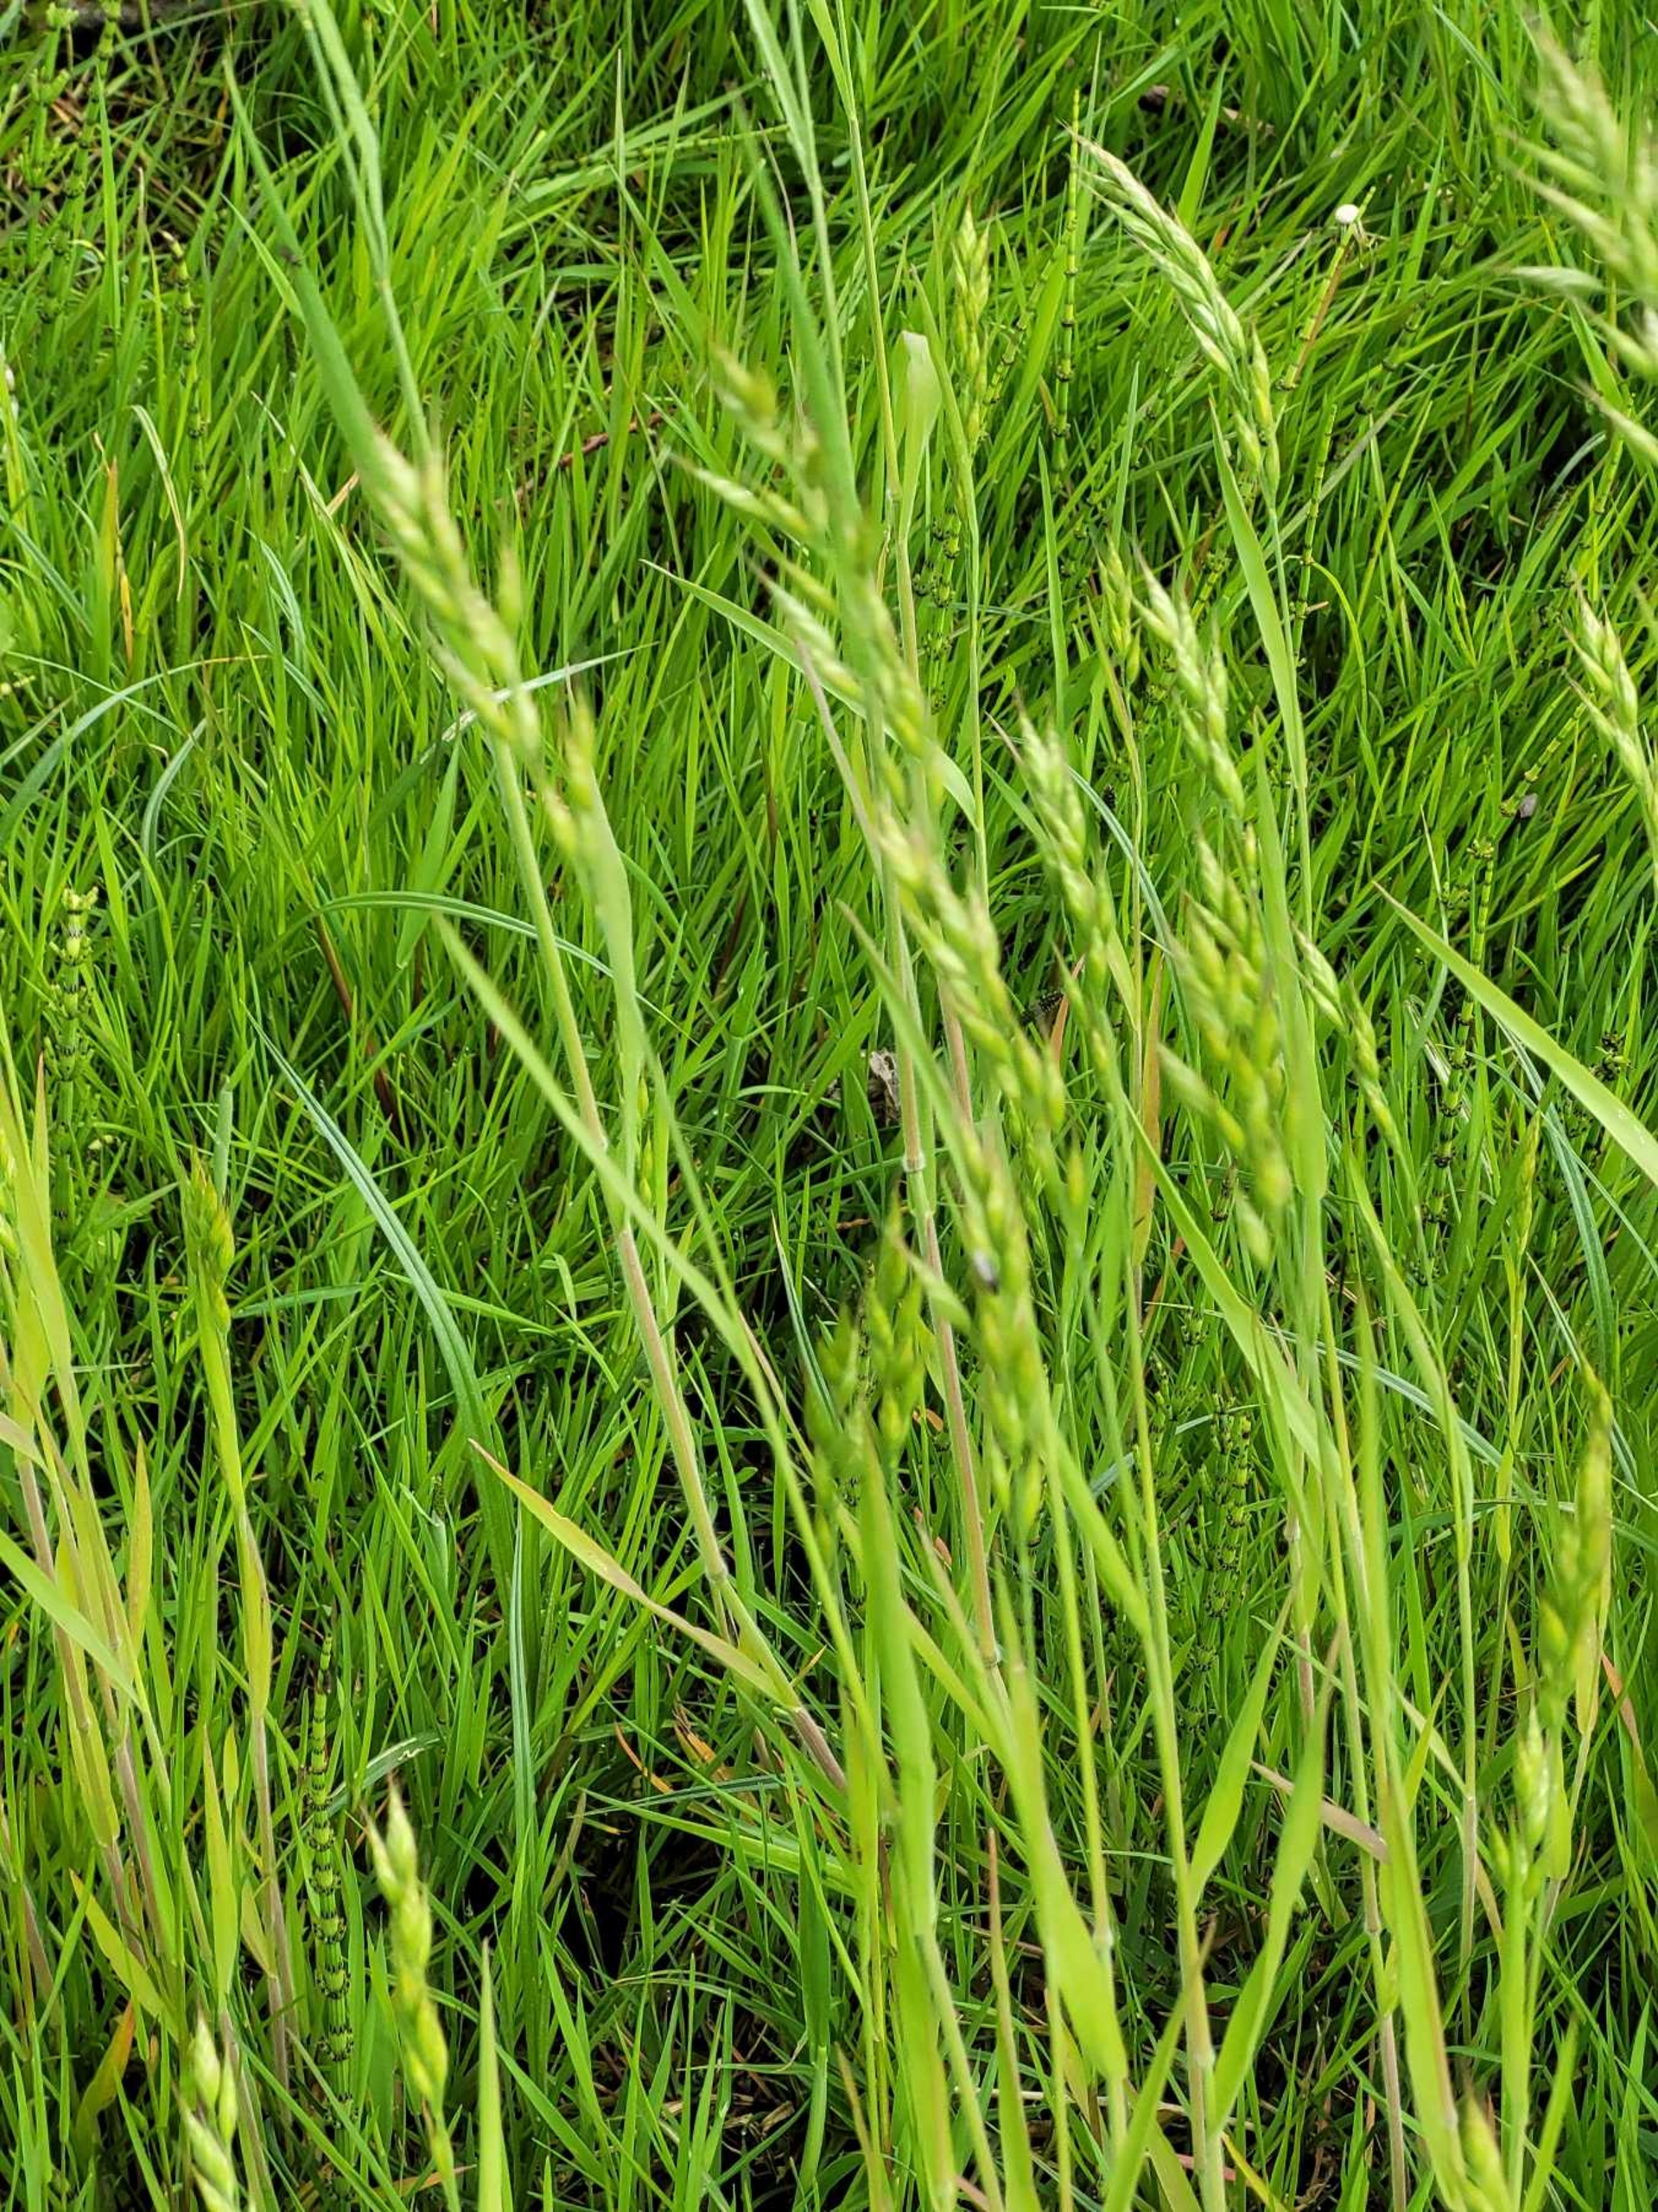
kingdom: Plantae
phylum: Tracheophyta
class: Liliopsida
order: Poales
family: Poaceae
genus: Bromus
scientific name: Bromus hordeaceus
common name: Blød hejre
